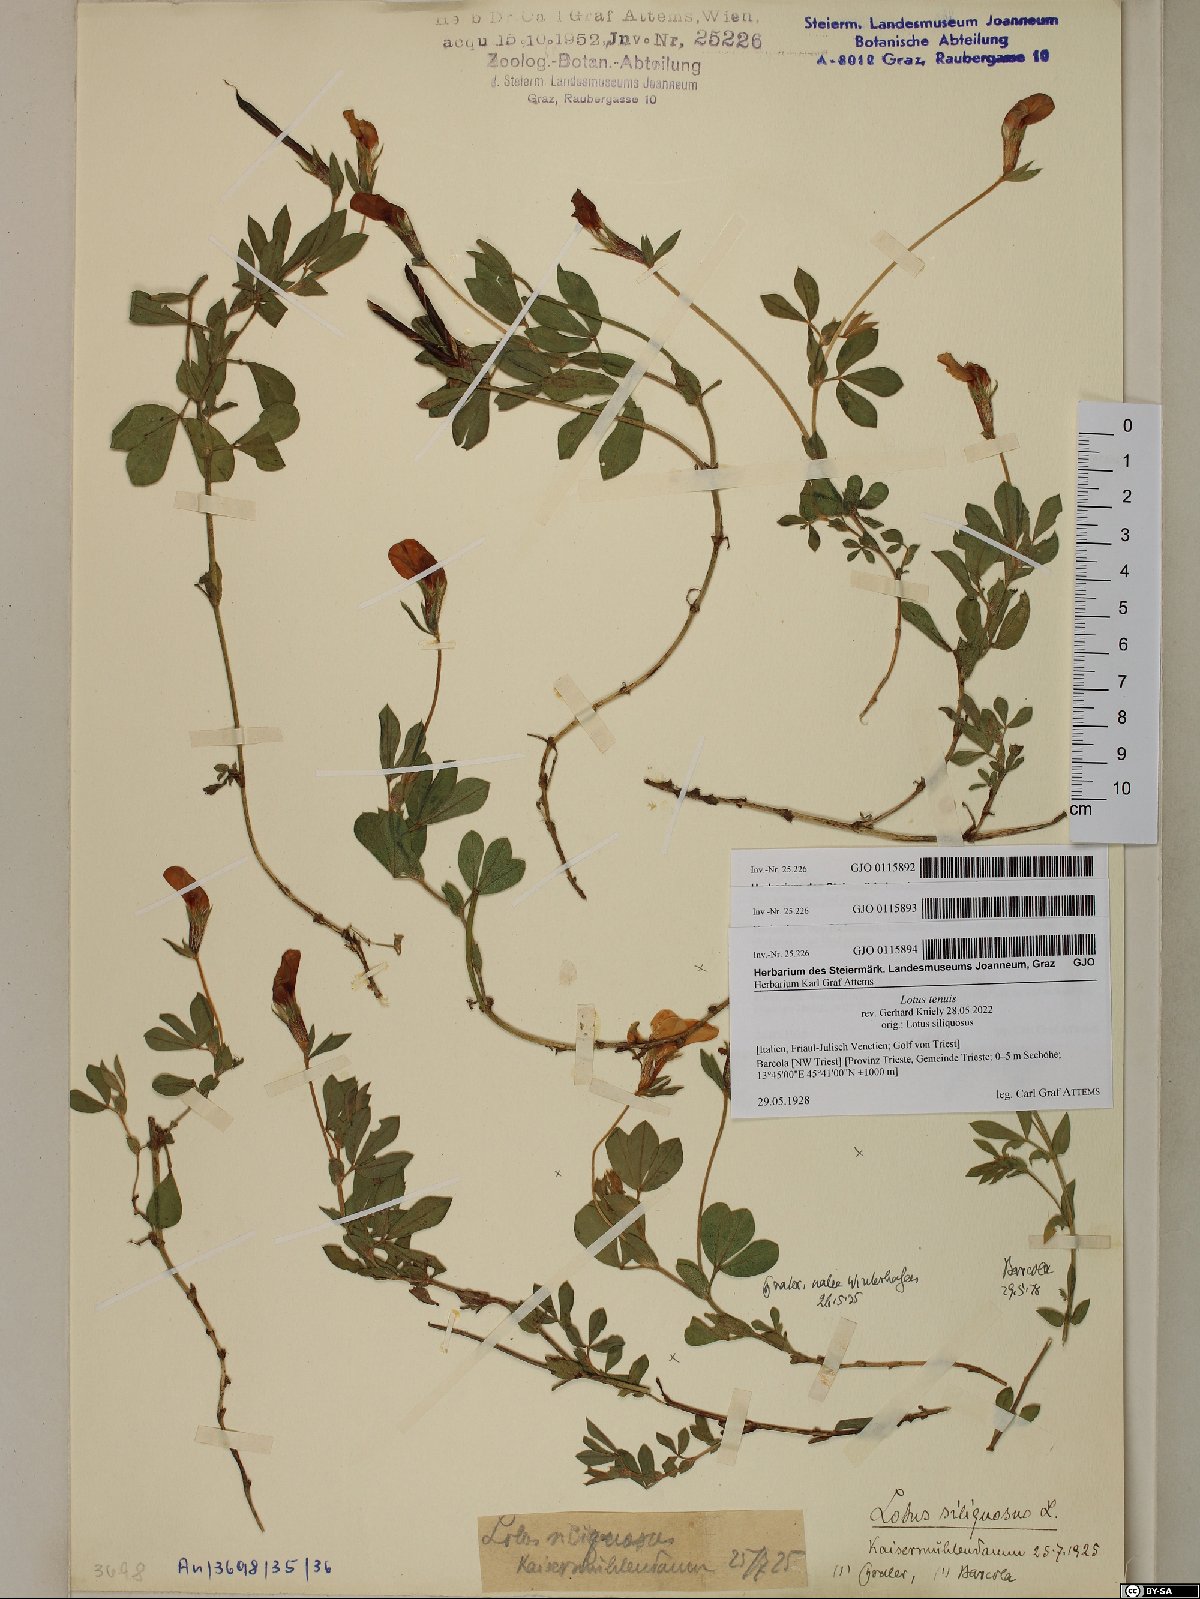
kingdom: Plantae
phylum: Tracheophyta
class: Magnoliopsida
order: Fabales
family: Fabaceae
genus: Lotus
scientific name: Lotus tenuis
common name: Narrow-leaved bird's-foot-trefoil
